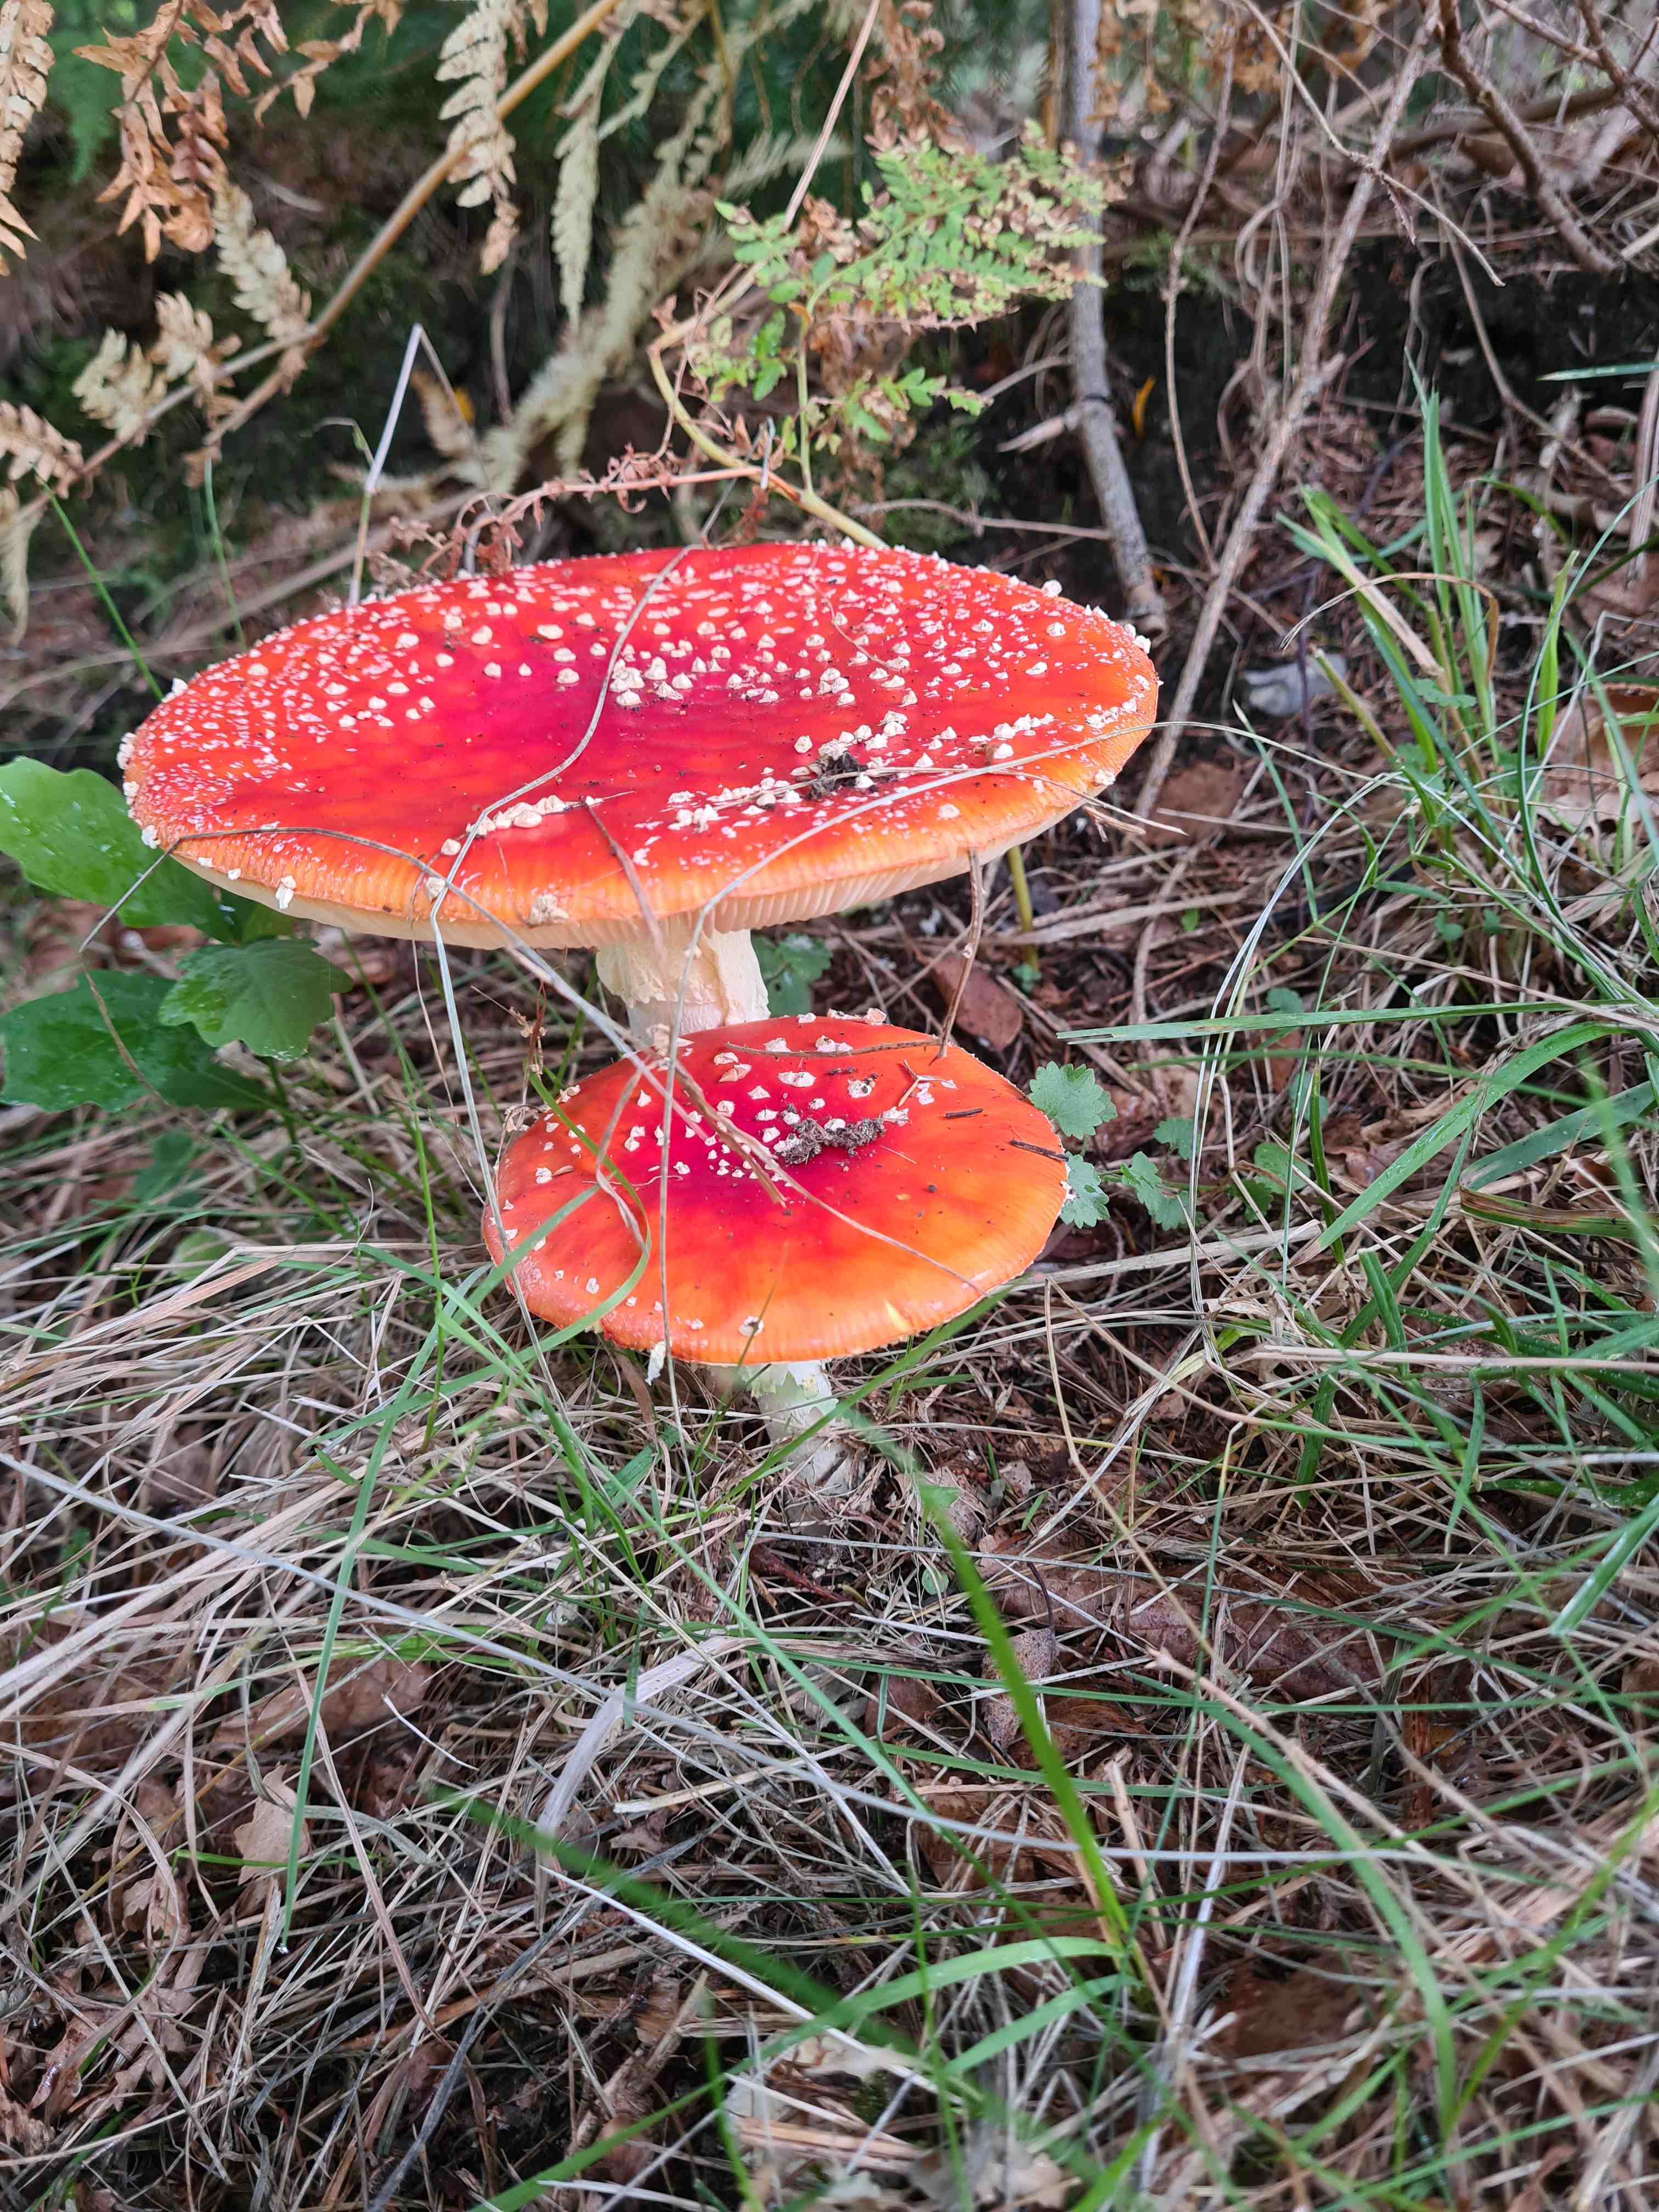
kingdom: Fungi
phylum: Basidiomycota
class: Agaricomycetes
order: Agaricales
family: Amanitaceae
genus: Amanita
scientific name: Amanita muscaria
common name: rød fluesvamp
